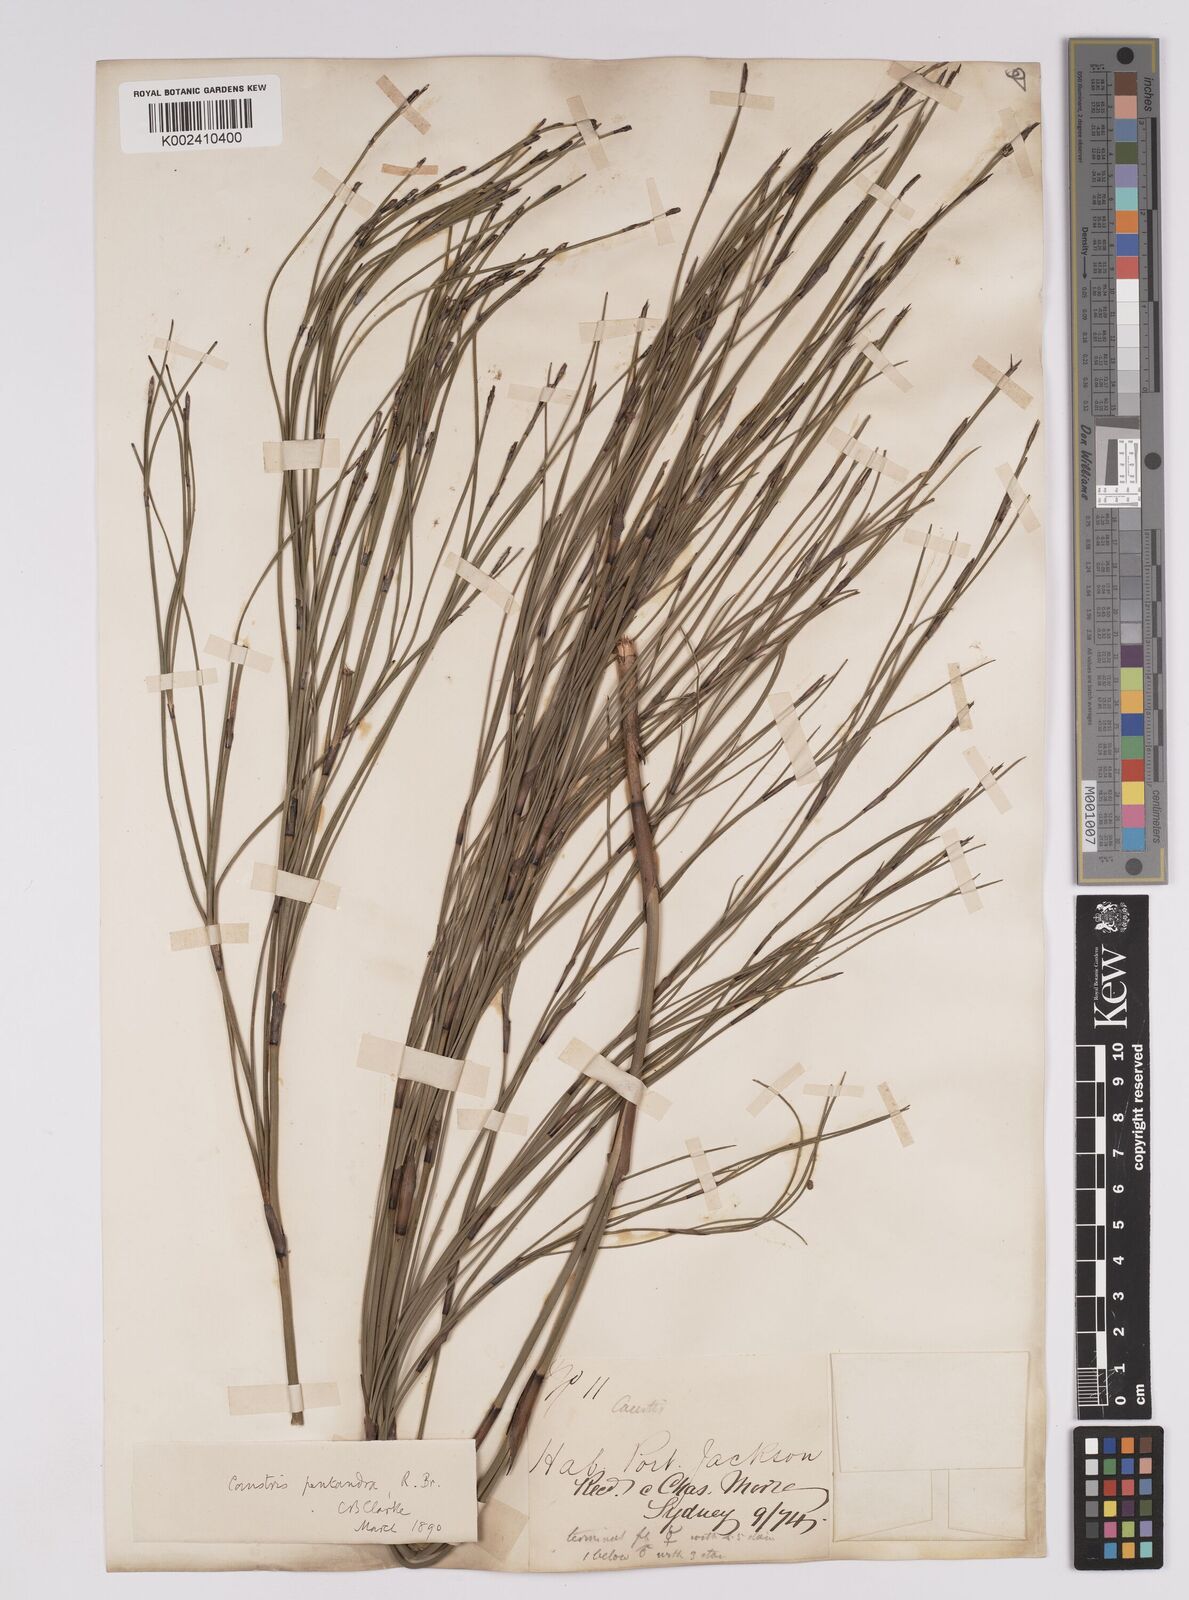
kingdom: Plantae
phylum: Tracheophyta
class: Liliopsida
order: Poales
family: Cyperaceae
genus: Caustis
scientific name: Caustis pentandra
